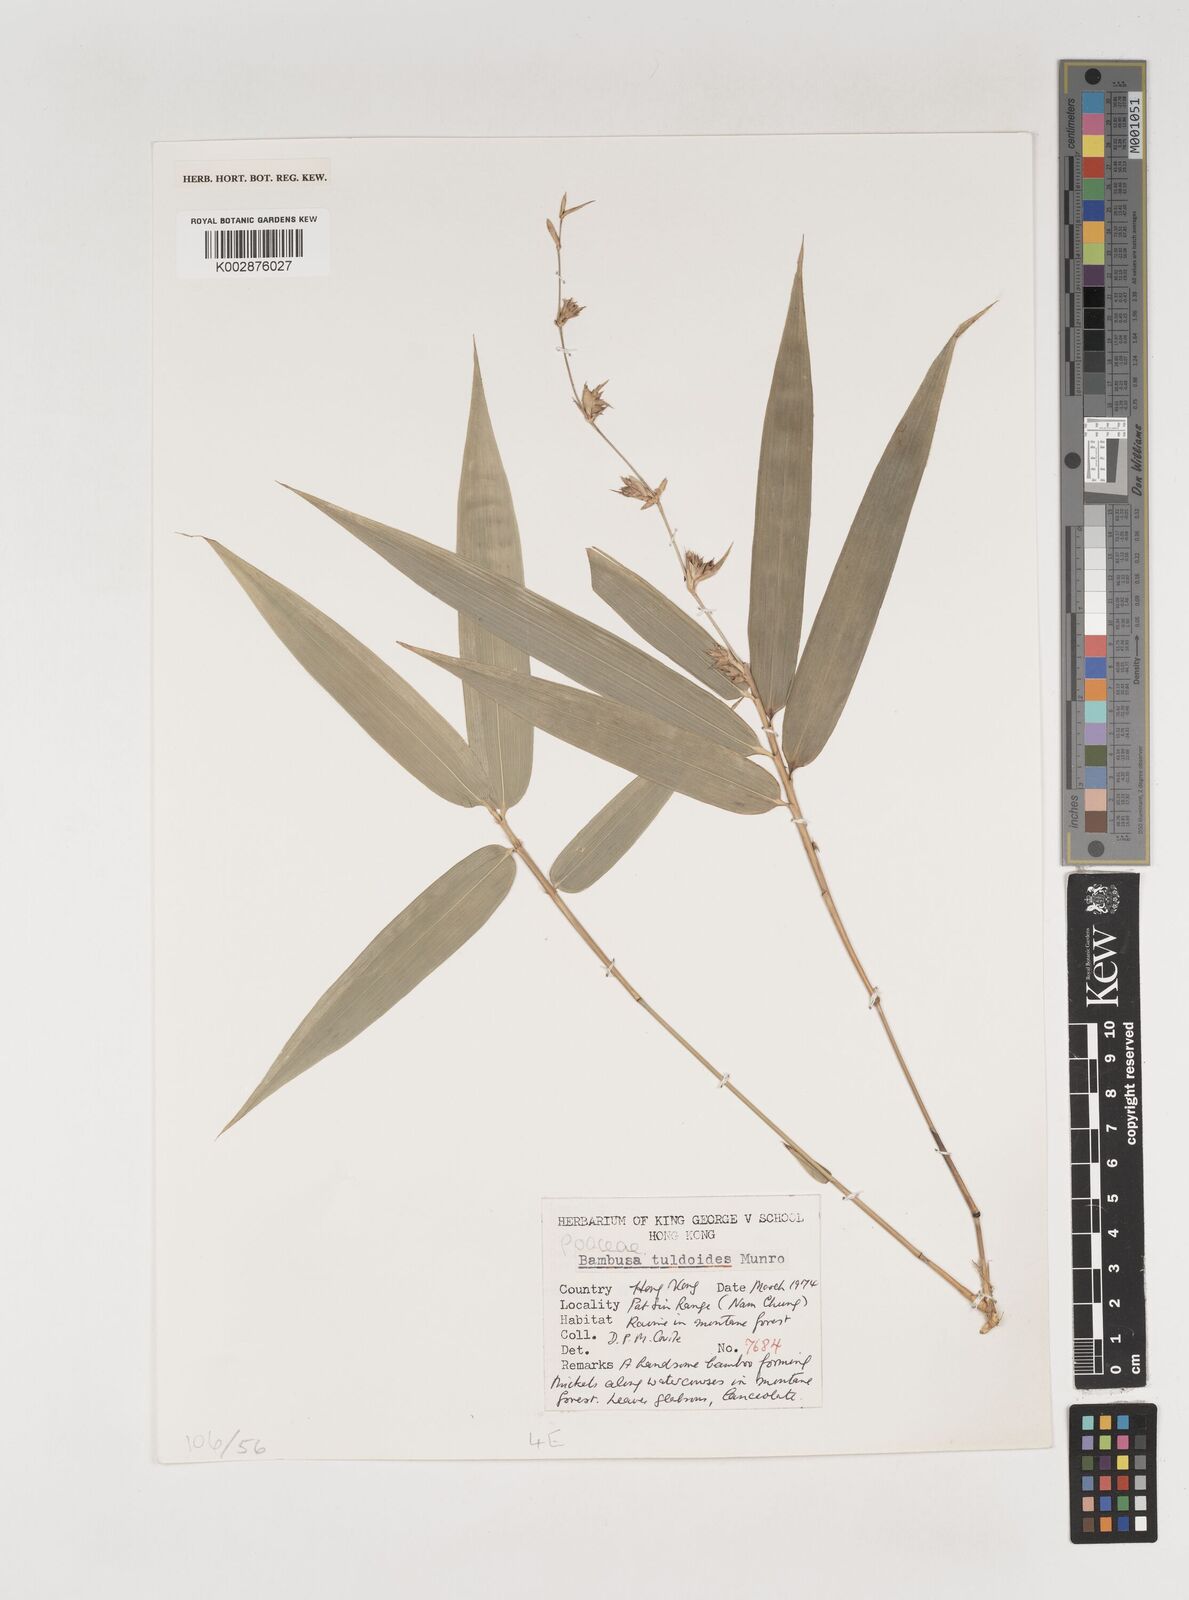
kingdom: Plantae
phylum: Tracheophyta
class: Liliopsida
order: Poales
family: Poaceae
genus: Bambusa
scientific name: Bambusa tuldoides
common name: Verdant bamboo
